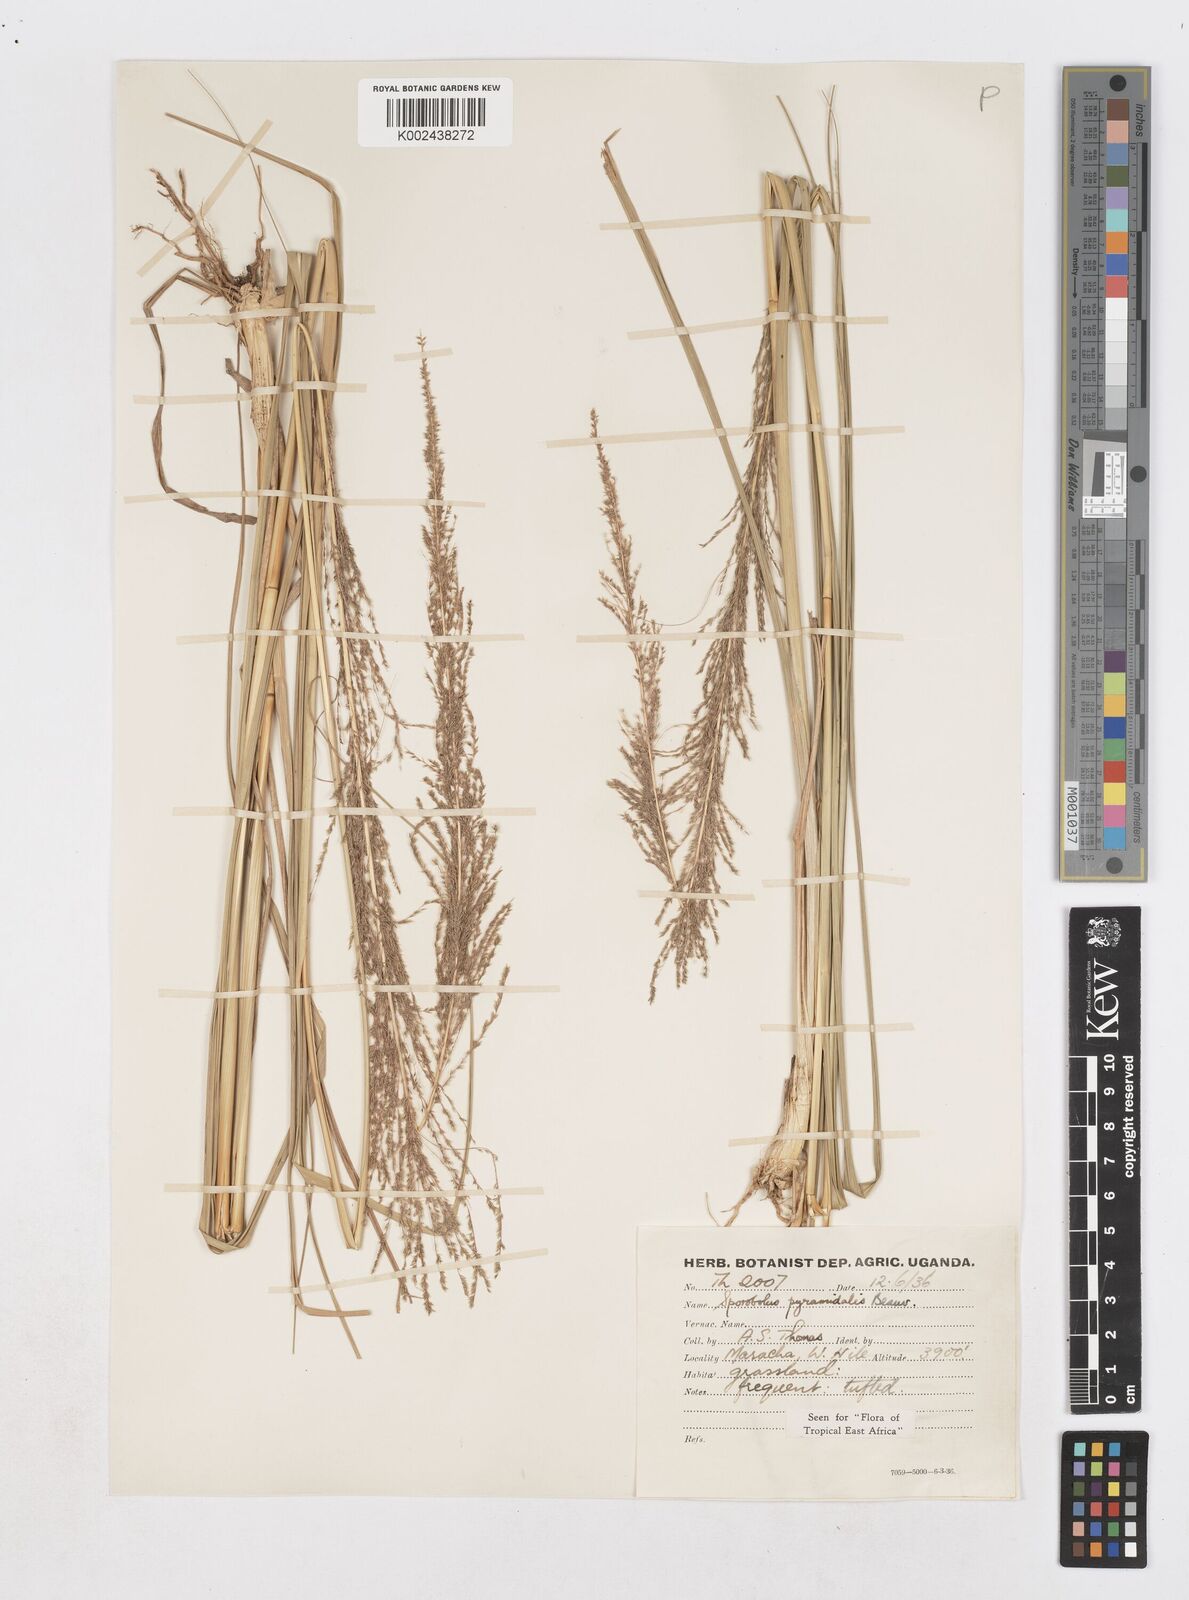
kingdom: Plantae
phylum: Tracheophyta
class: Liliopsida
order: Poales
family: Poaceae
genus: Sporobolus
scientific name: Sporobolus pyramidalis
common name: West indian dropseed
